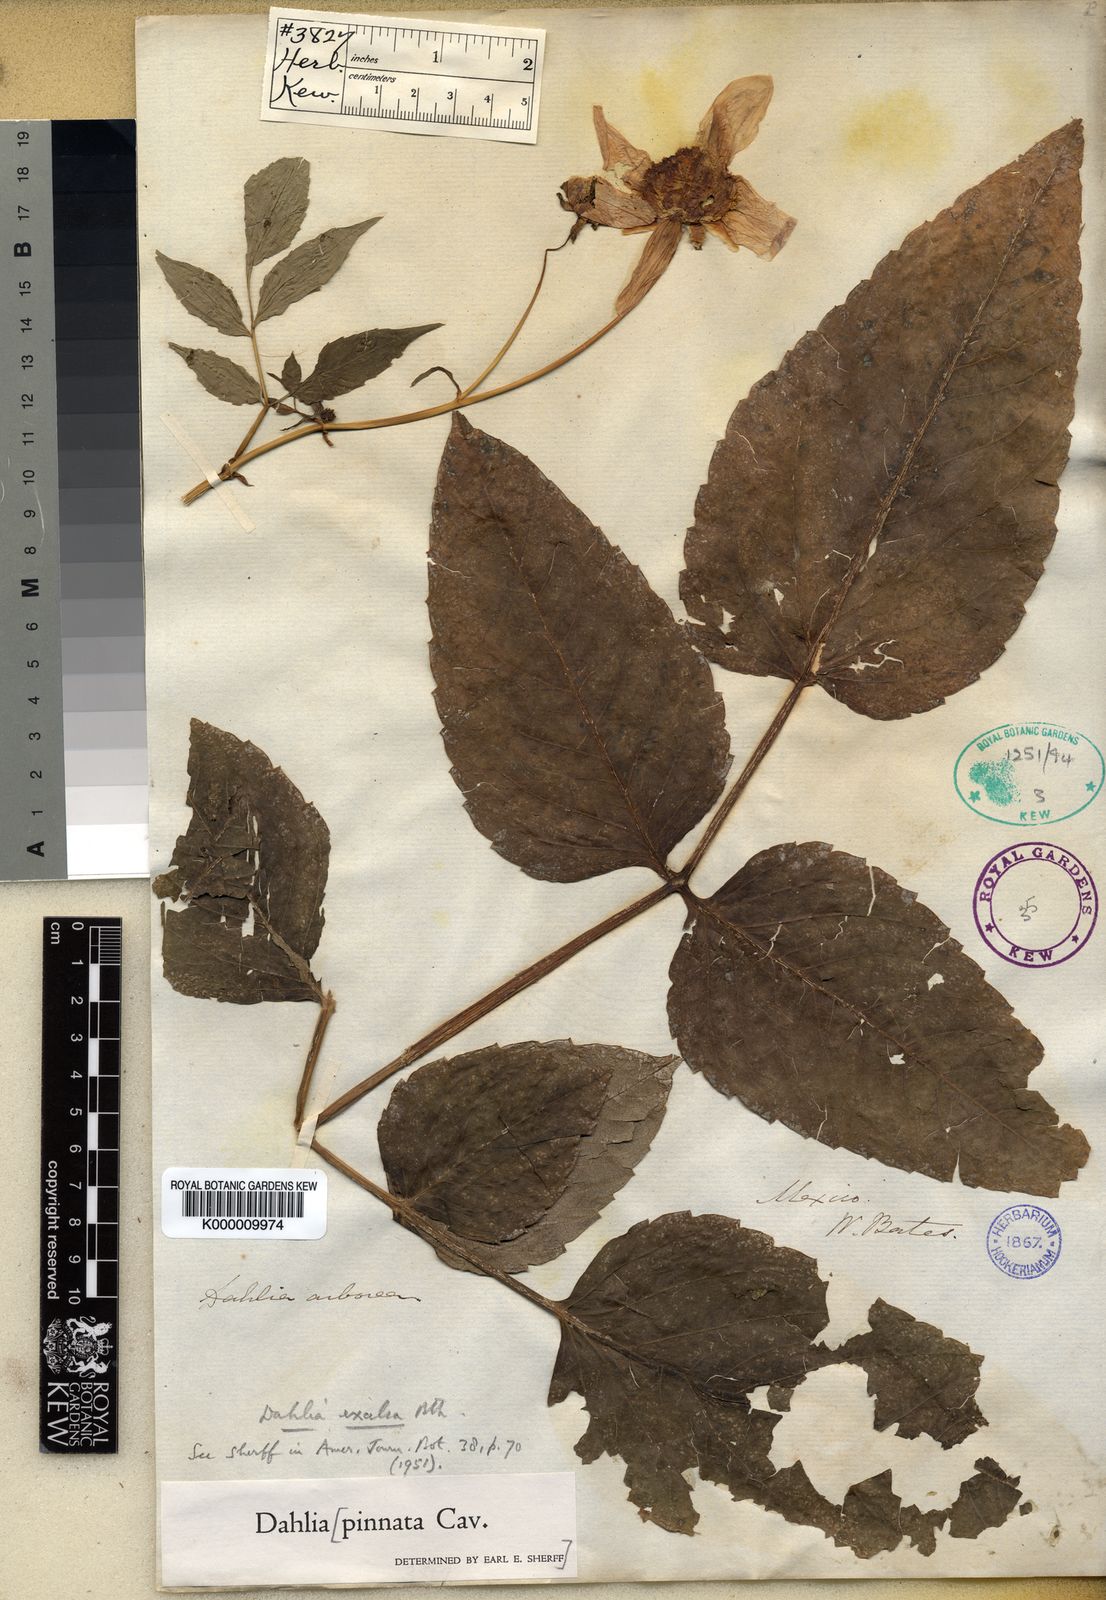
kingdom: Plantae
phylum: Tracheophyta
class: Magnoliopsida
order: Asterales
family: Asteraceae
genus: Dahlia
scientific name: Dahlia excelsa
